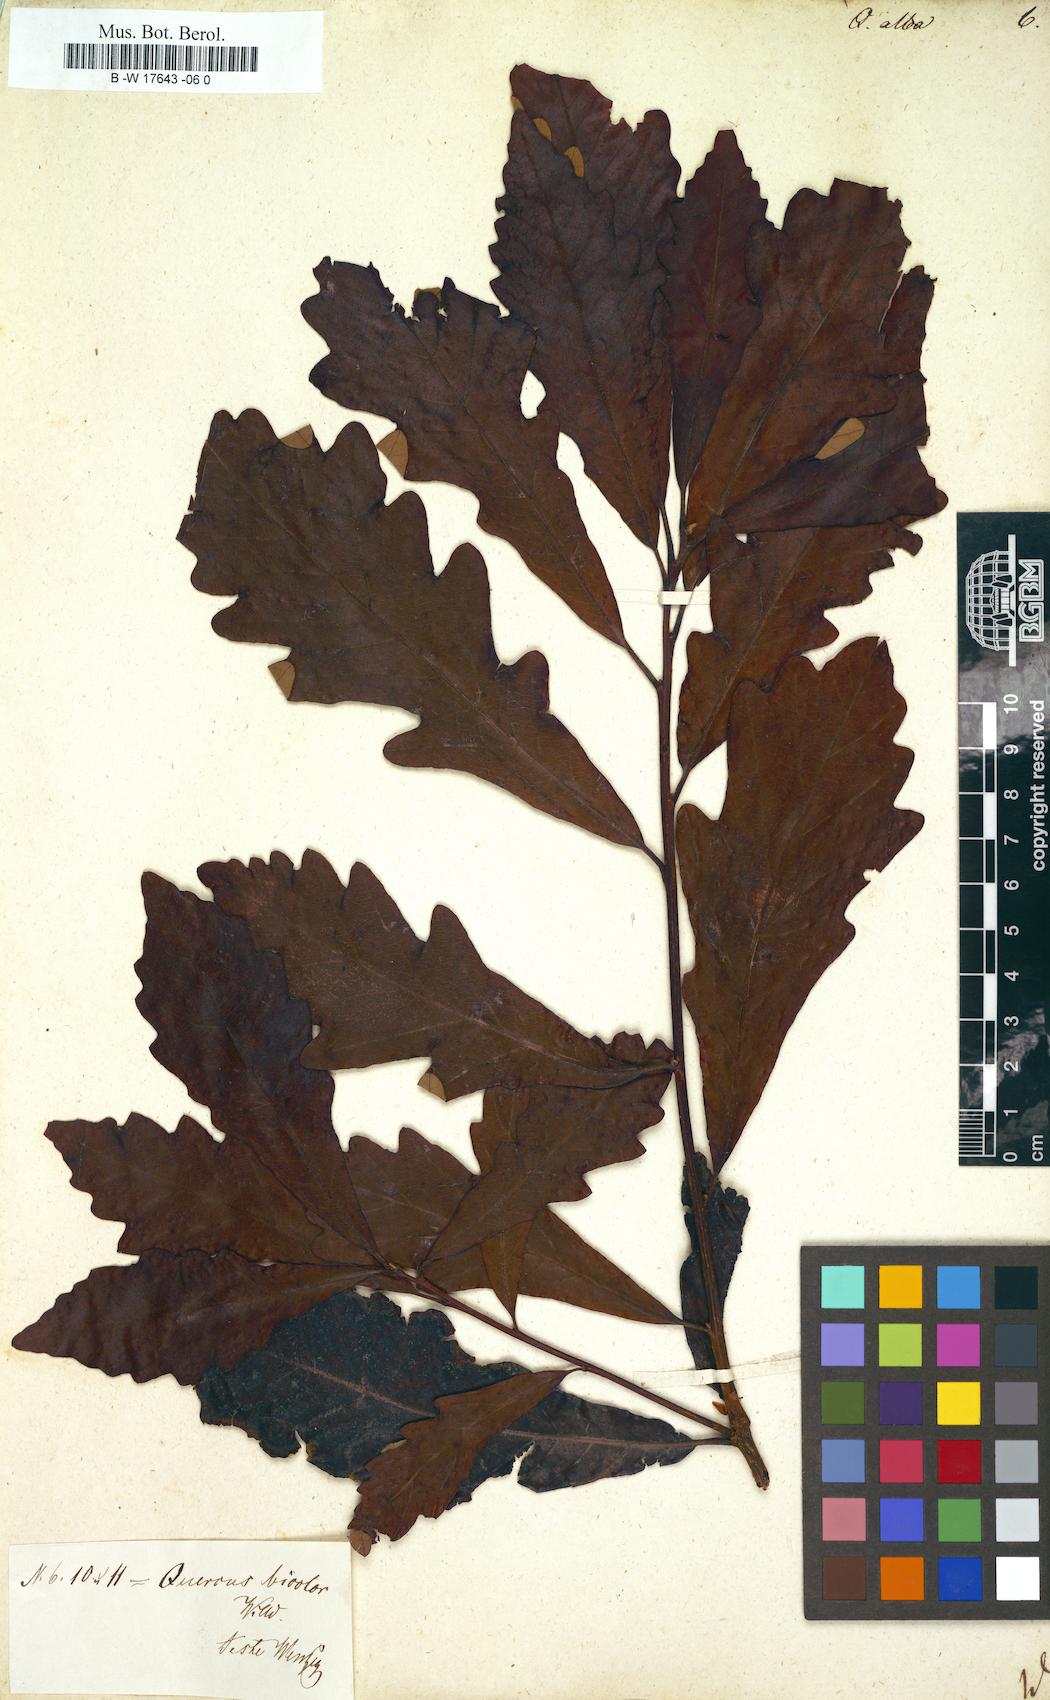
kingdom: Plantae
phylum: Tracheophyta
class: Magnoliopsida
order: Fagales
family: Fagaceae
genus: Quercus
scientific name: Quercus alba
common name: White oak
